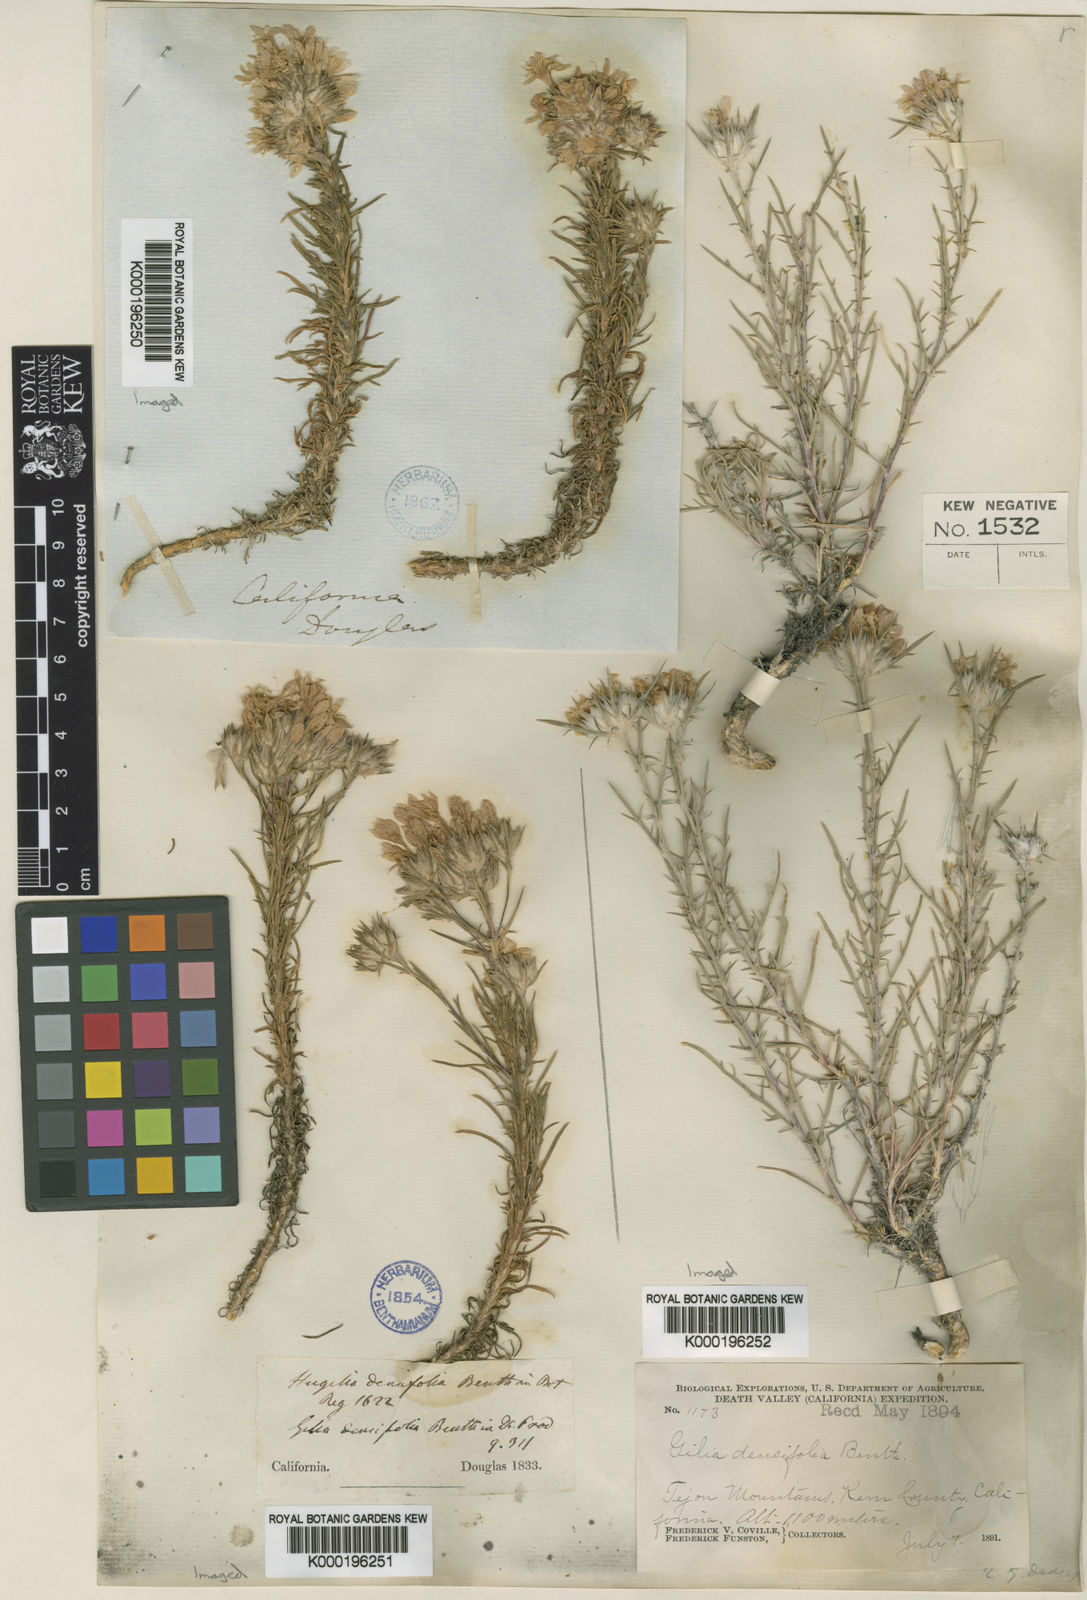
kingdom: Plantae
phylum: Tracheophyta
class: Magnoliopsida
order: Ericales
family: Polemoniaceae
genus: Eriastrum
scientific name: Eriastrum densifolium
